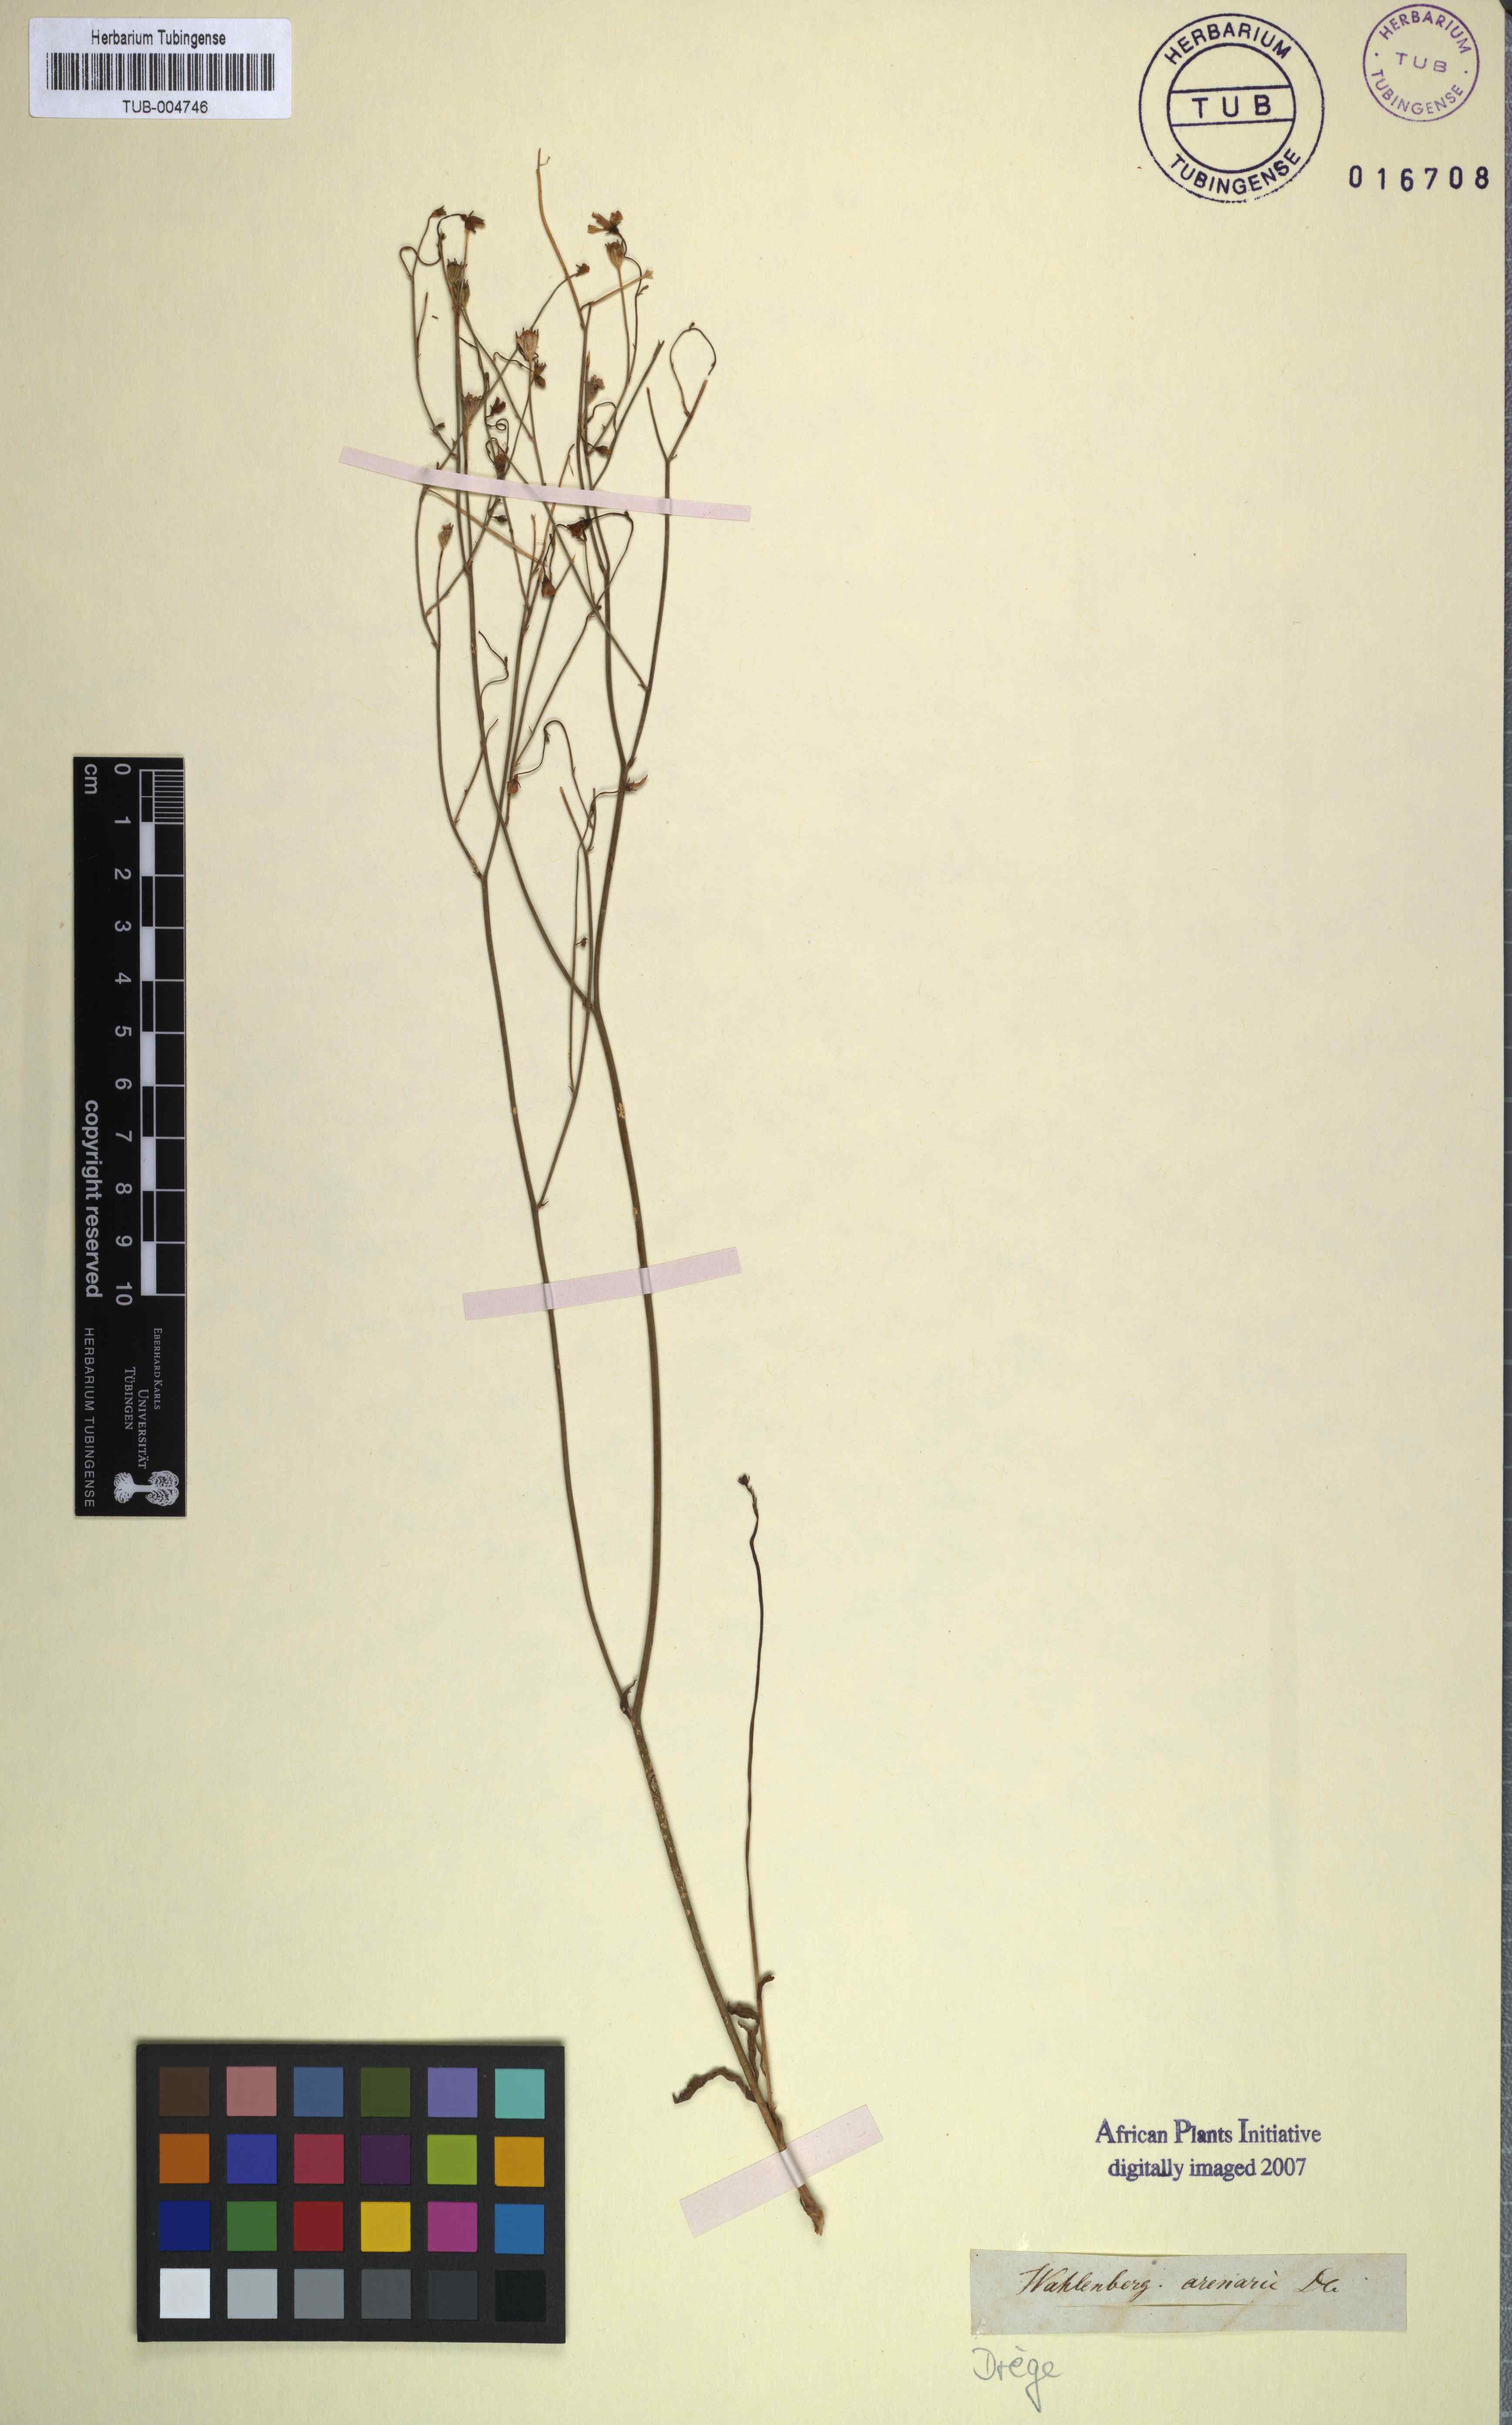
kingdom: Plantae
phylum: Tracheophyta
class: Magnoliopsida
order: Asterales
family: Campanulaceae
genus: Wahlenbergia
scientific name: Wahlenbergia androsacea
